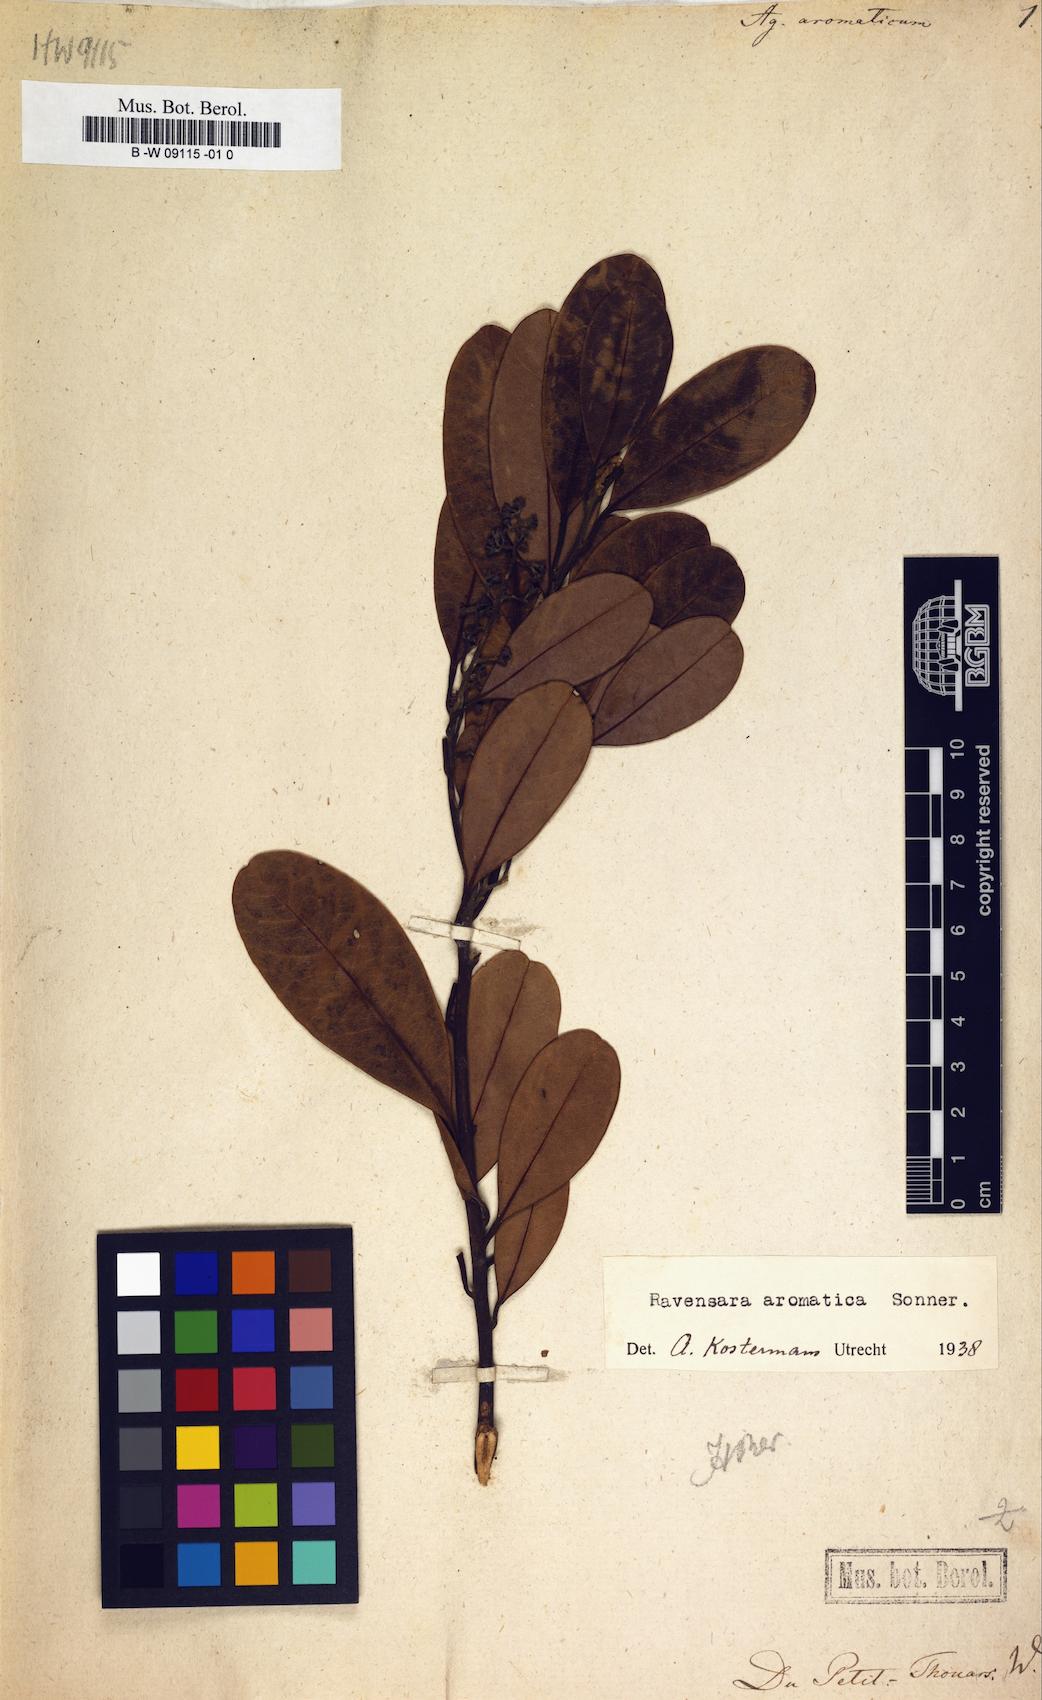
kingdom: Plantae
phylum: Tracheophyta
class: Magnoliopsida
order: Laurales
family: Lauraceae
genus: Cryptocarya
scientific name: Cryptocarya agathophylla
